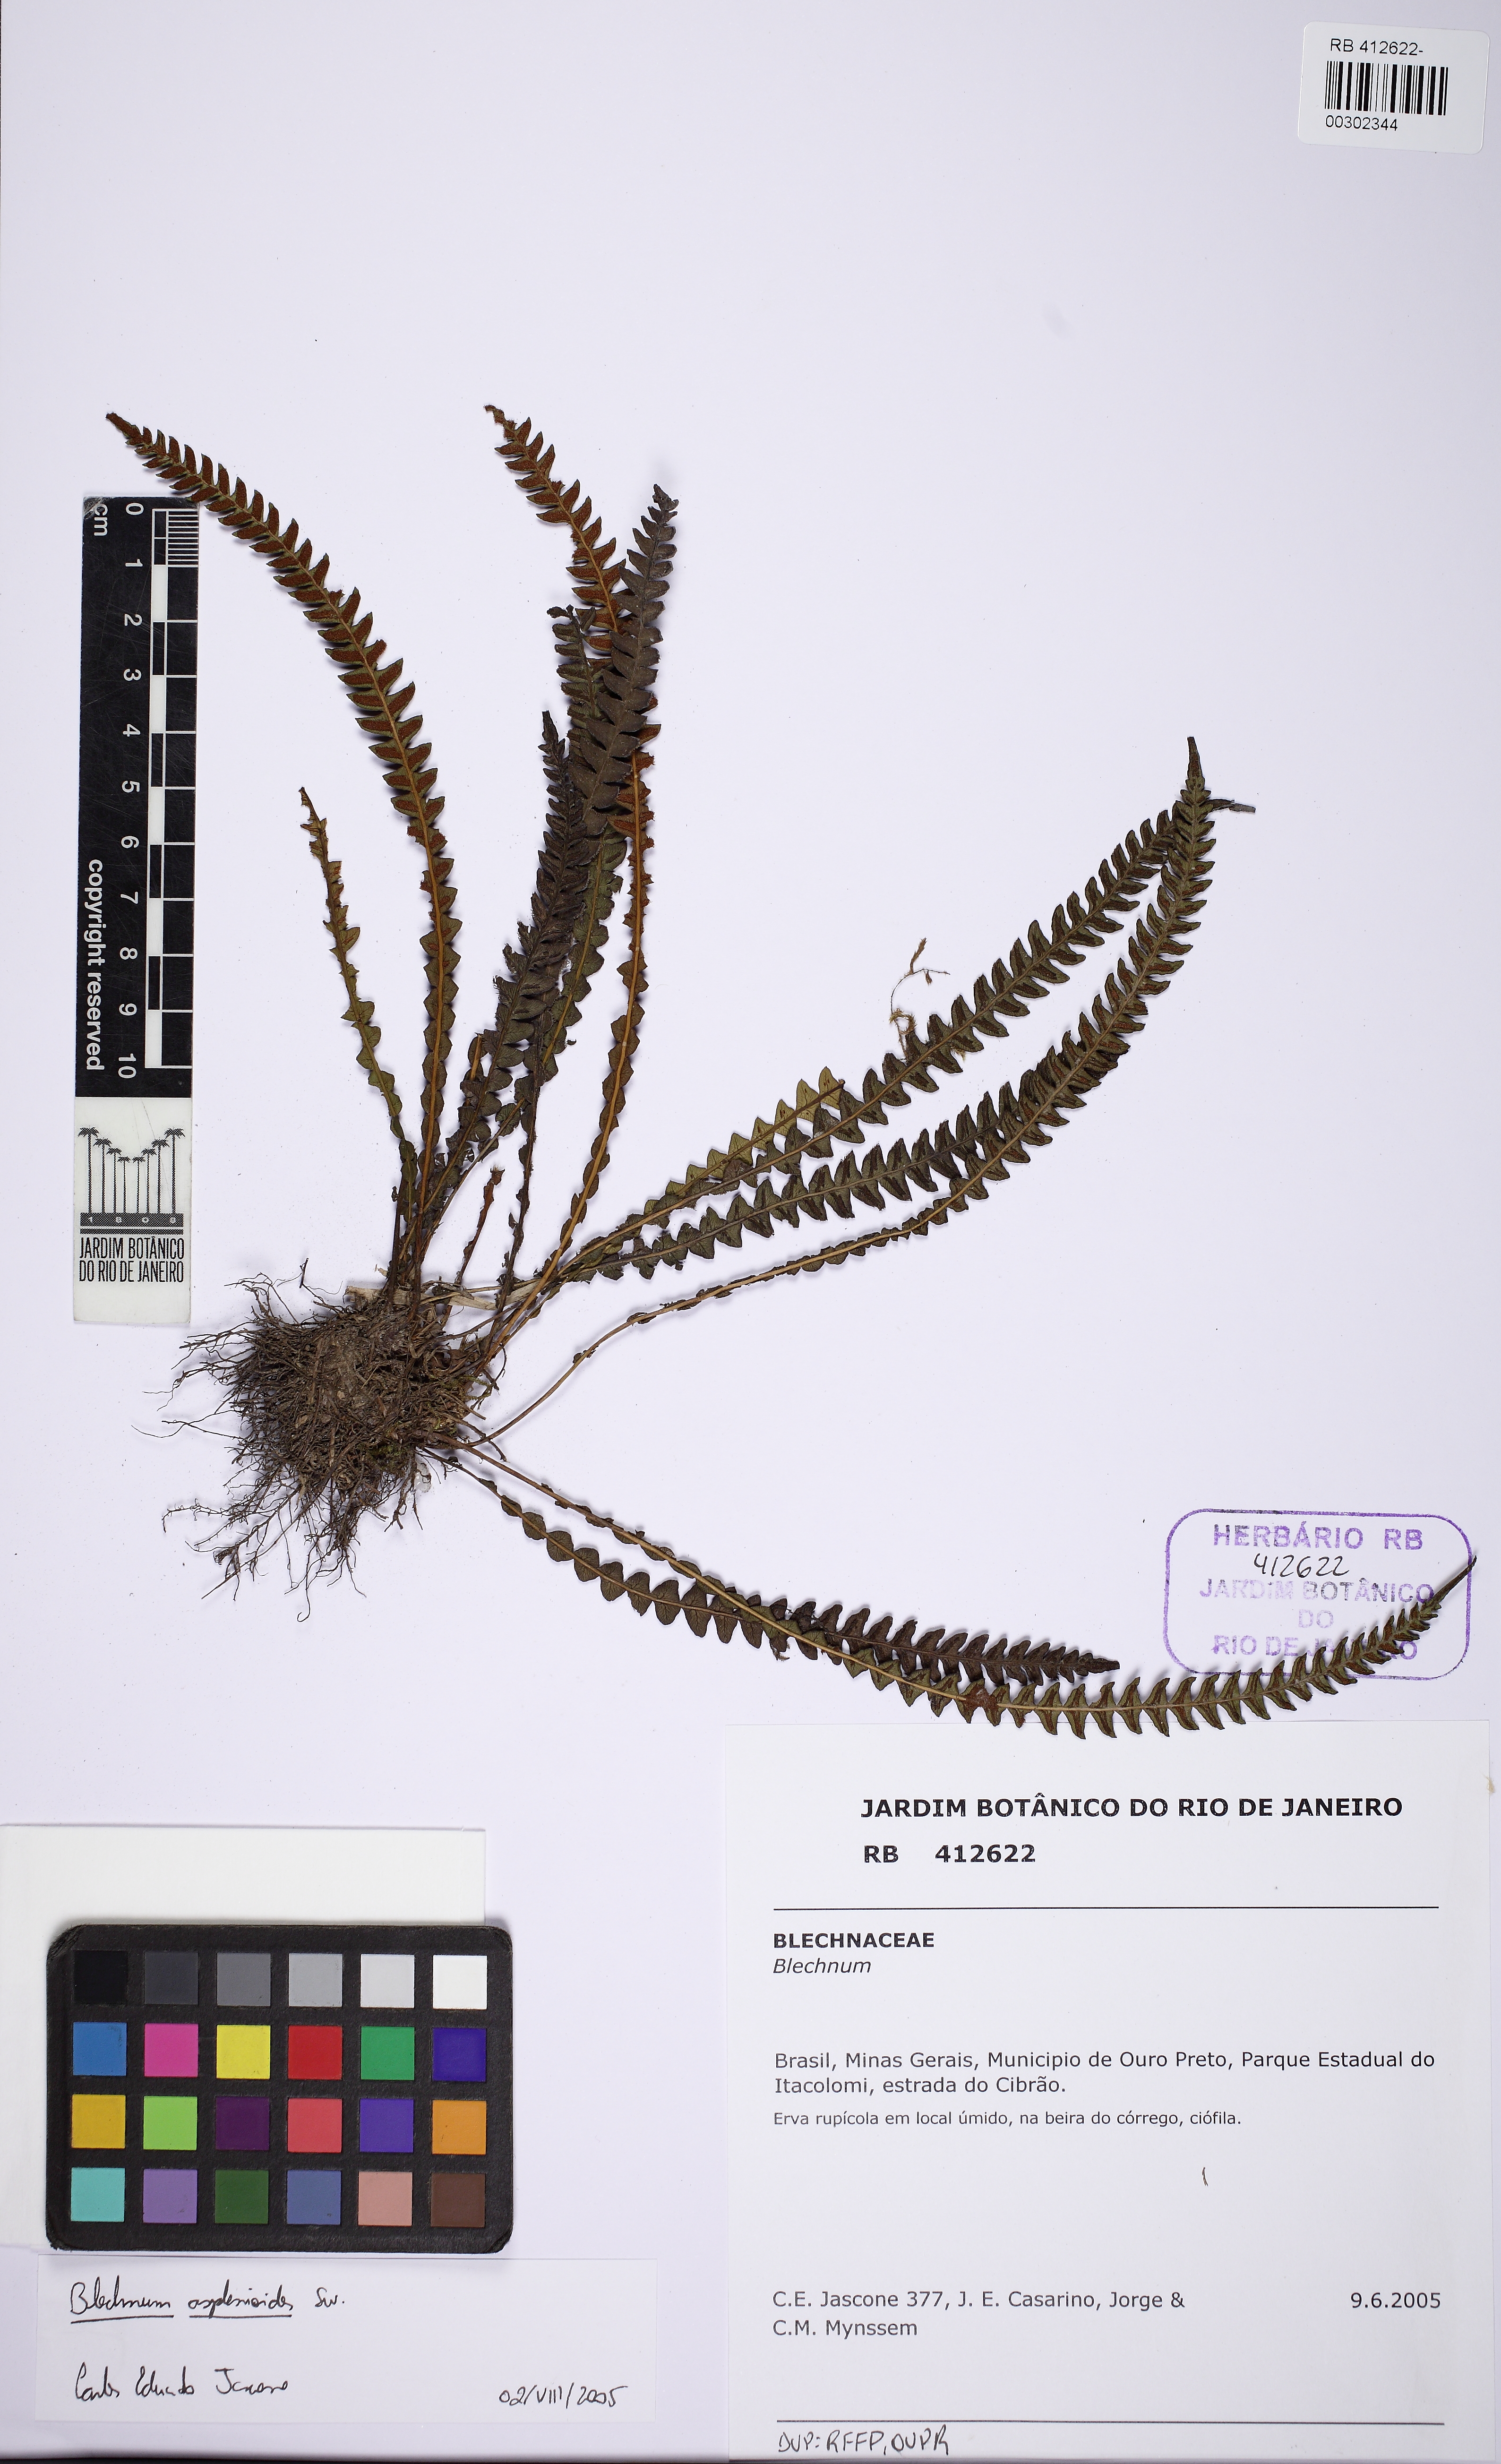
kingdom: Plantae
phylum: Tracheophyta
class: Polypodiopsida
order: Polypodiales
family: Blechnaceae
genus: Blechnum
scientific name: Blechnum asplenioides
